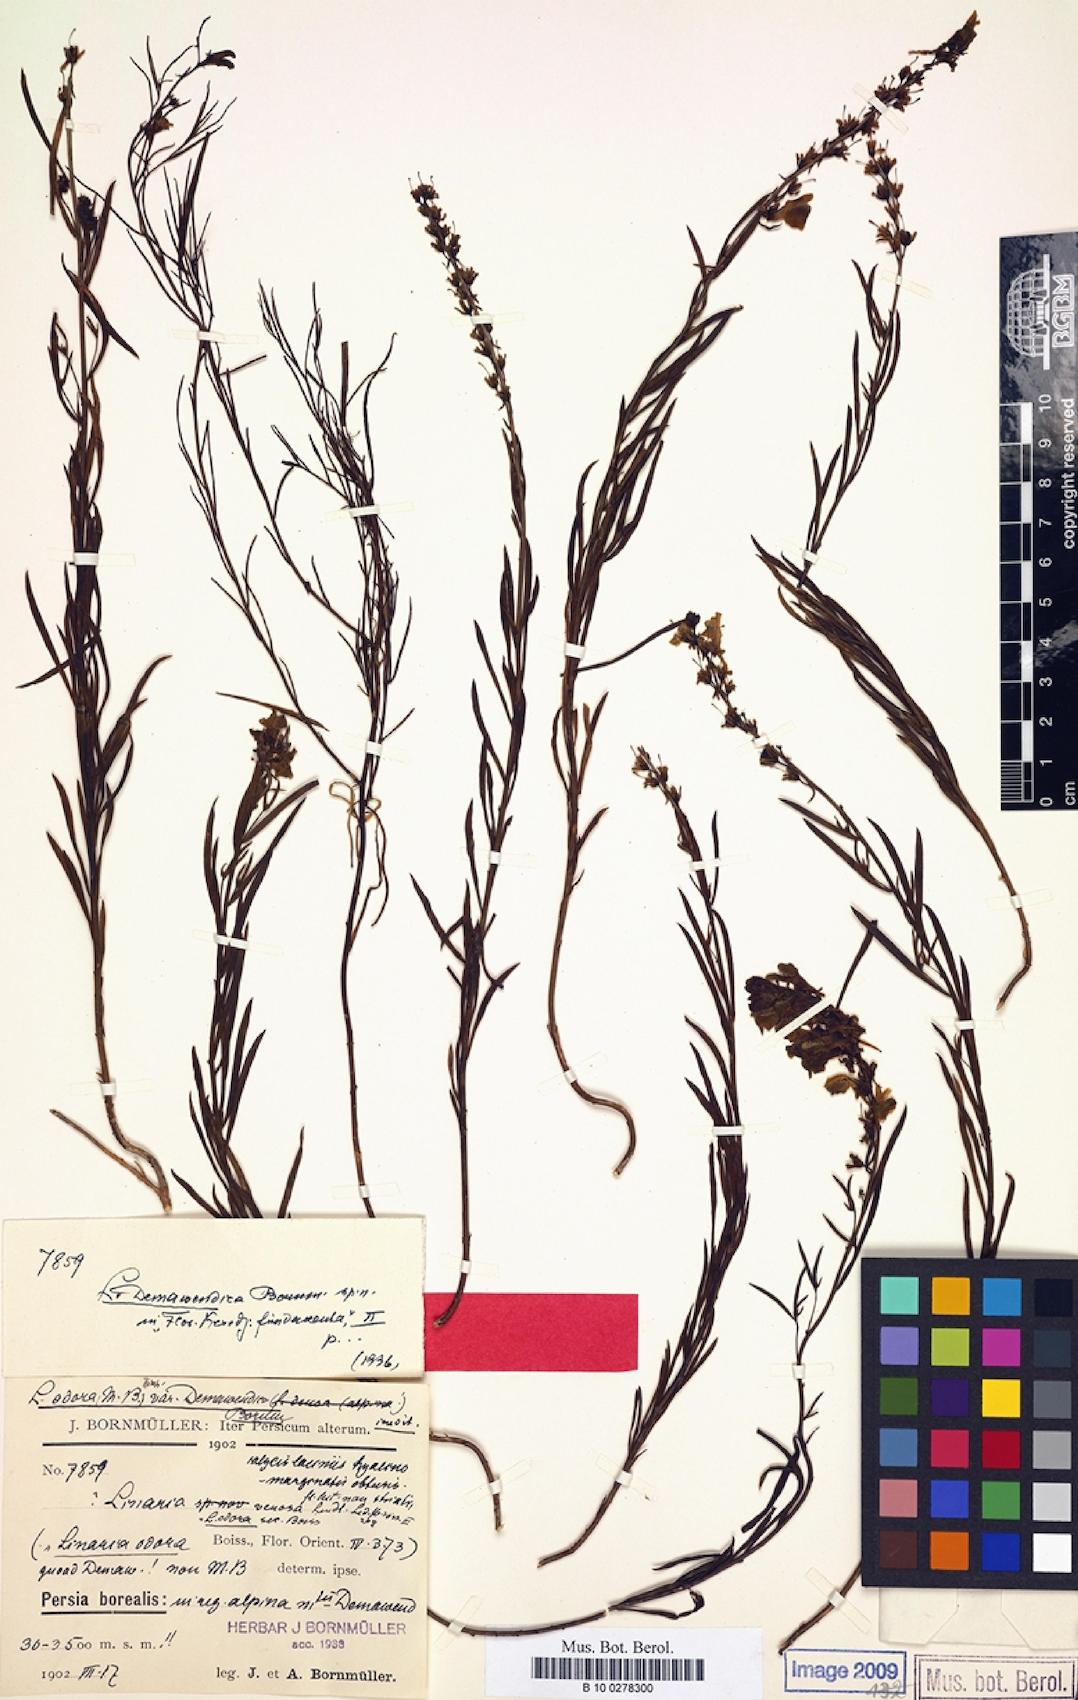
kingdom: Plantae
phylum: Tracheophyta
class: Magnoliopsida
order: Lamiales
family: Plantaginaceae
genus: Linaria
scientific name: Linaria lineolata
